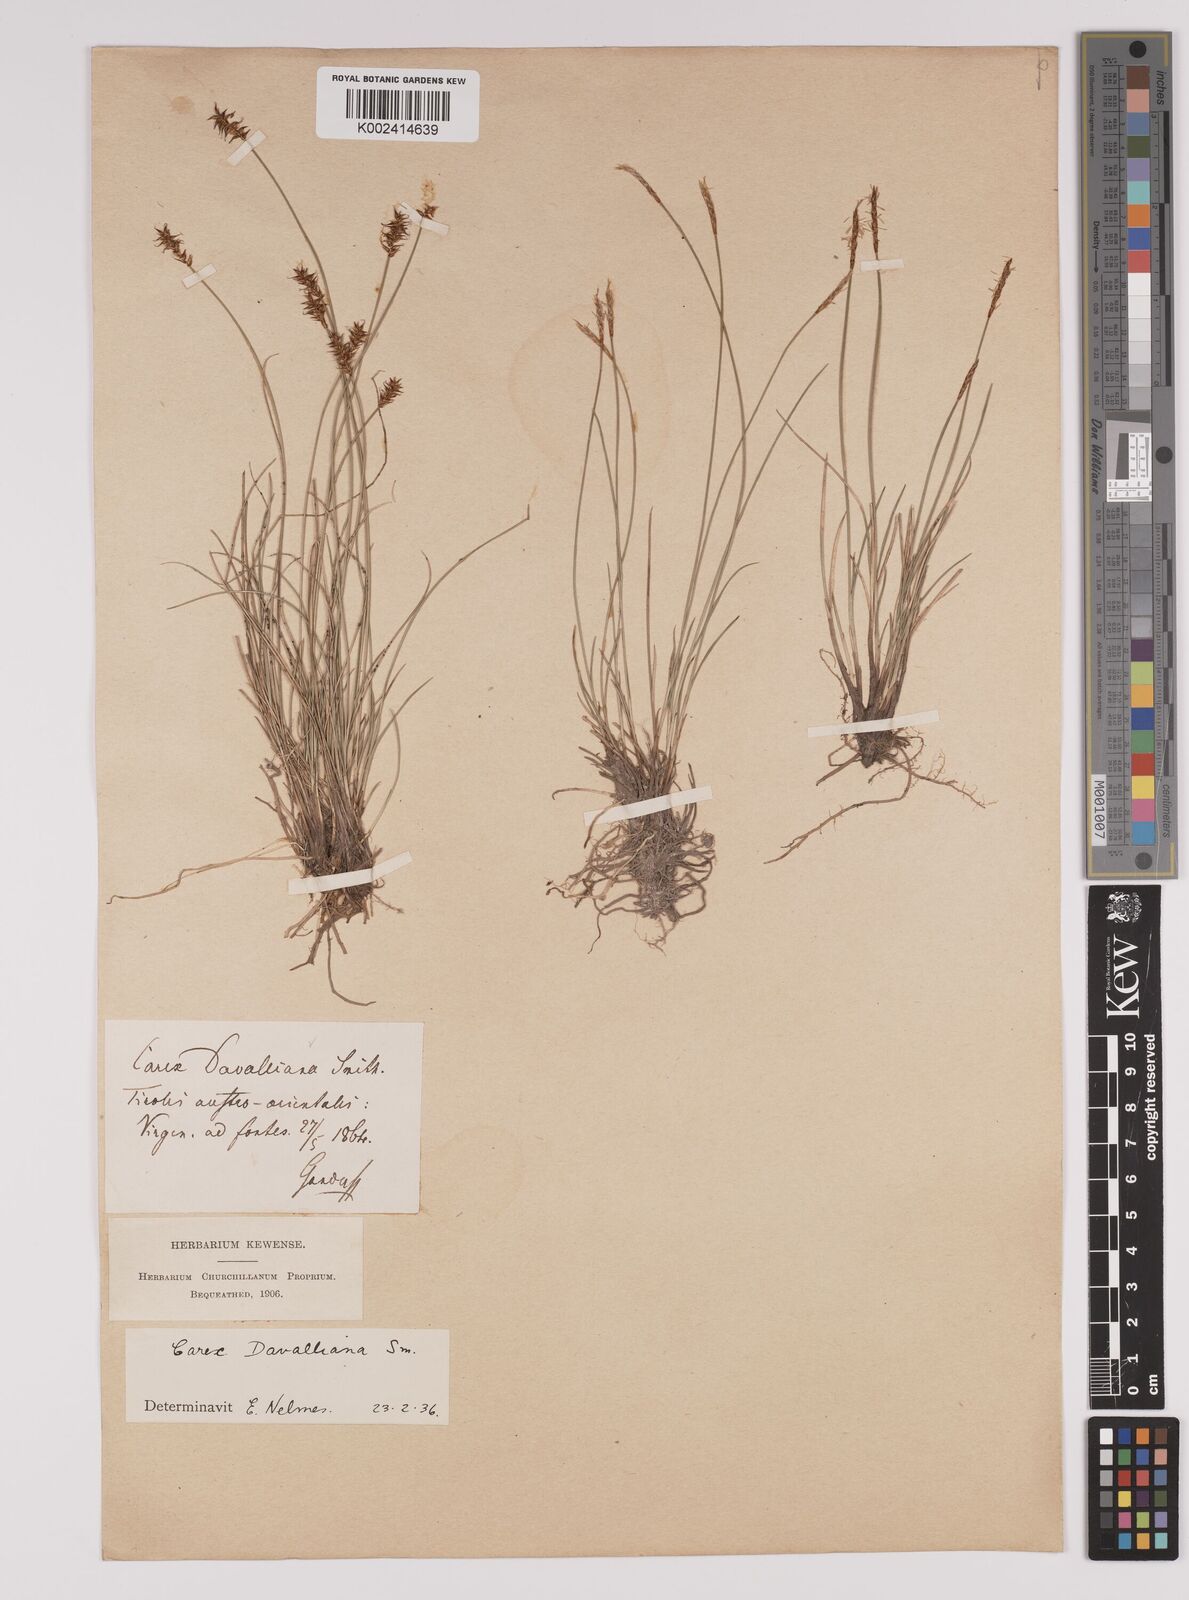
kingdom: Plantae
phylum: Tracheophyta
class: Liliopsida
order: Poales
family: Cyperaceae
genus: Carex
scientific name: Carex davalliana
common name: Davall's sedge
